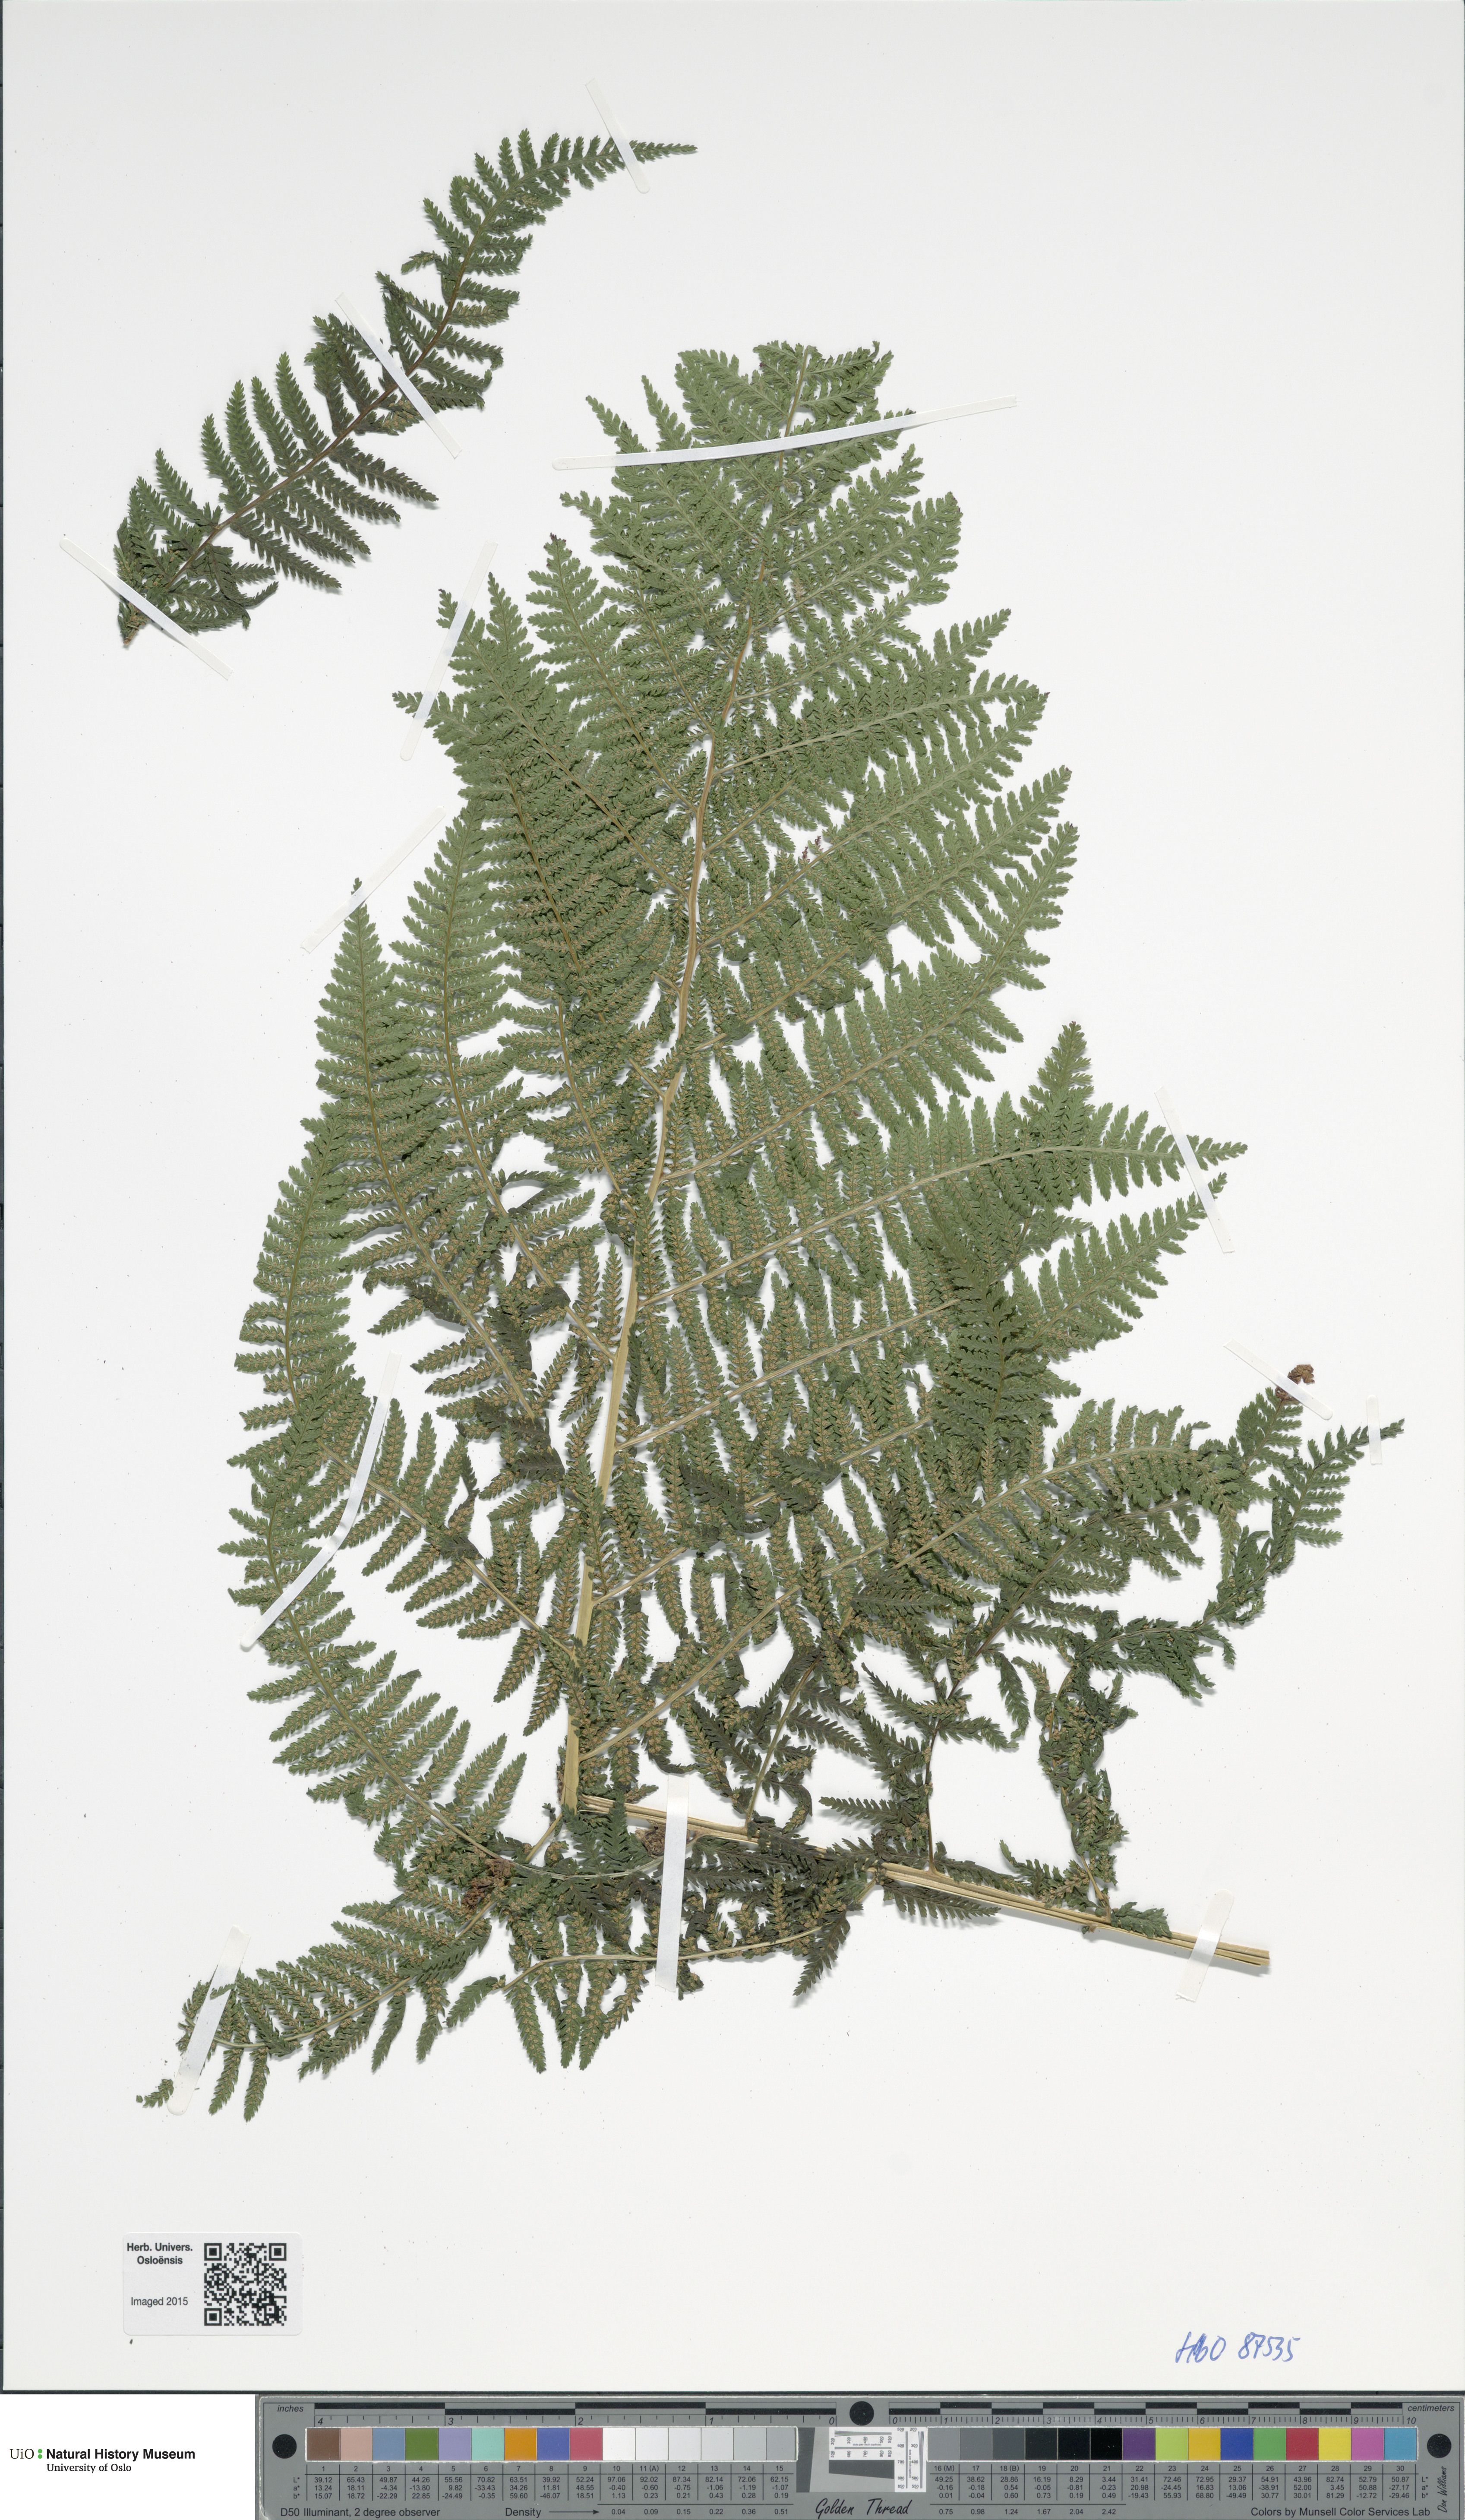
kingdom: Plantae
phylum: Tracheophyta
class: Polypodiopsida
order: Polypodiales
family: Athyriaceae
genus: Athyrium
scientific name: Athyrium filix-femina
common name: Lady fern
